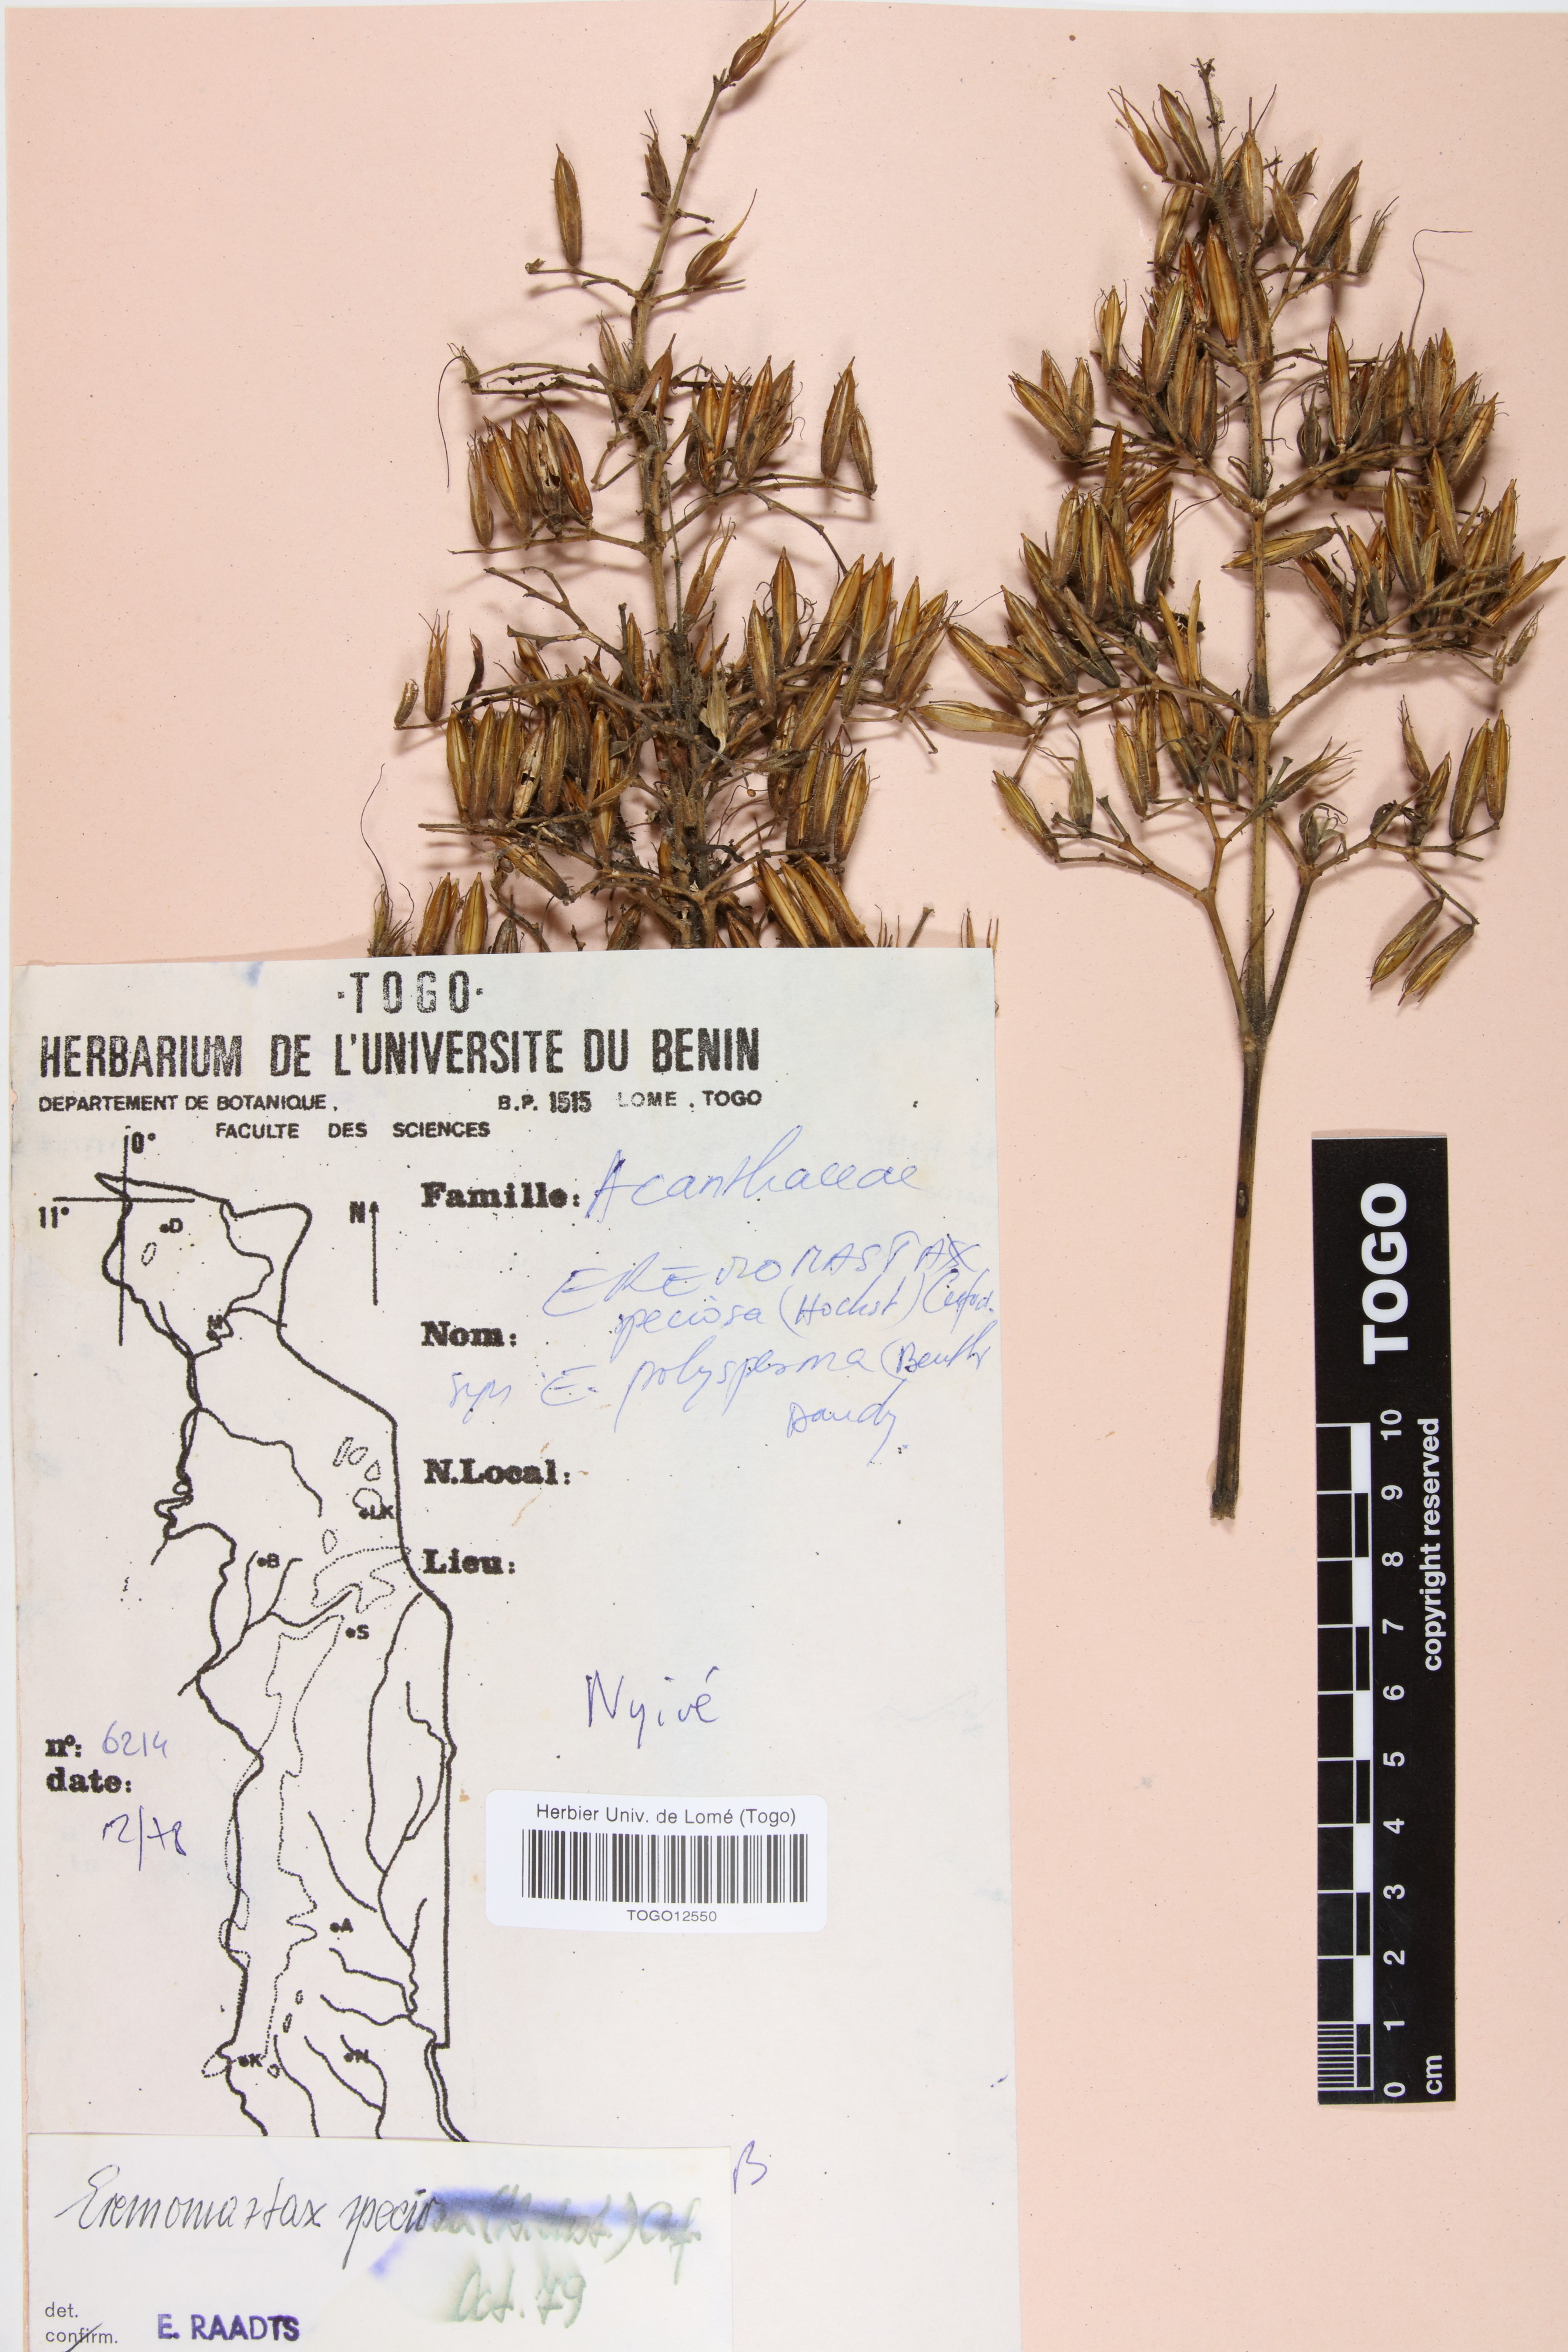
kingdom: Plantae
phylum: Tracheophyta
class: Magnoliopsida
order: Lamiales
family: Acanthaceae
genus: Eremomastax
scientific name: Eremomastax speciosa
